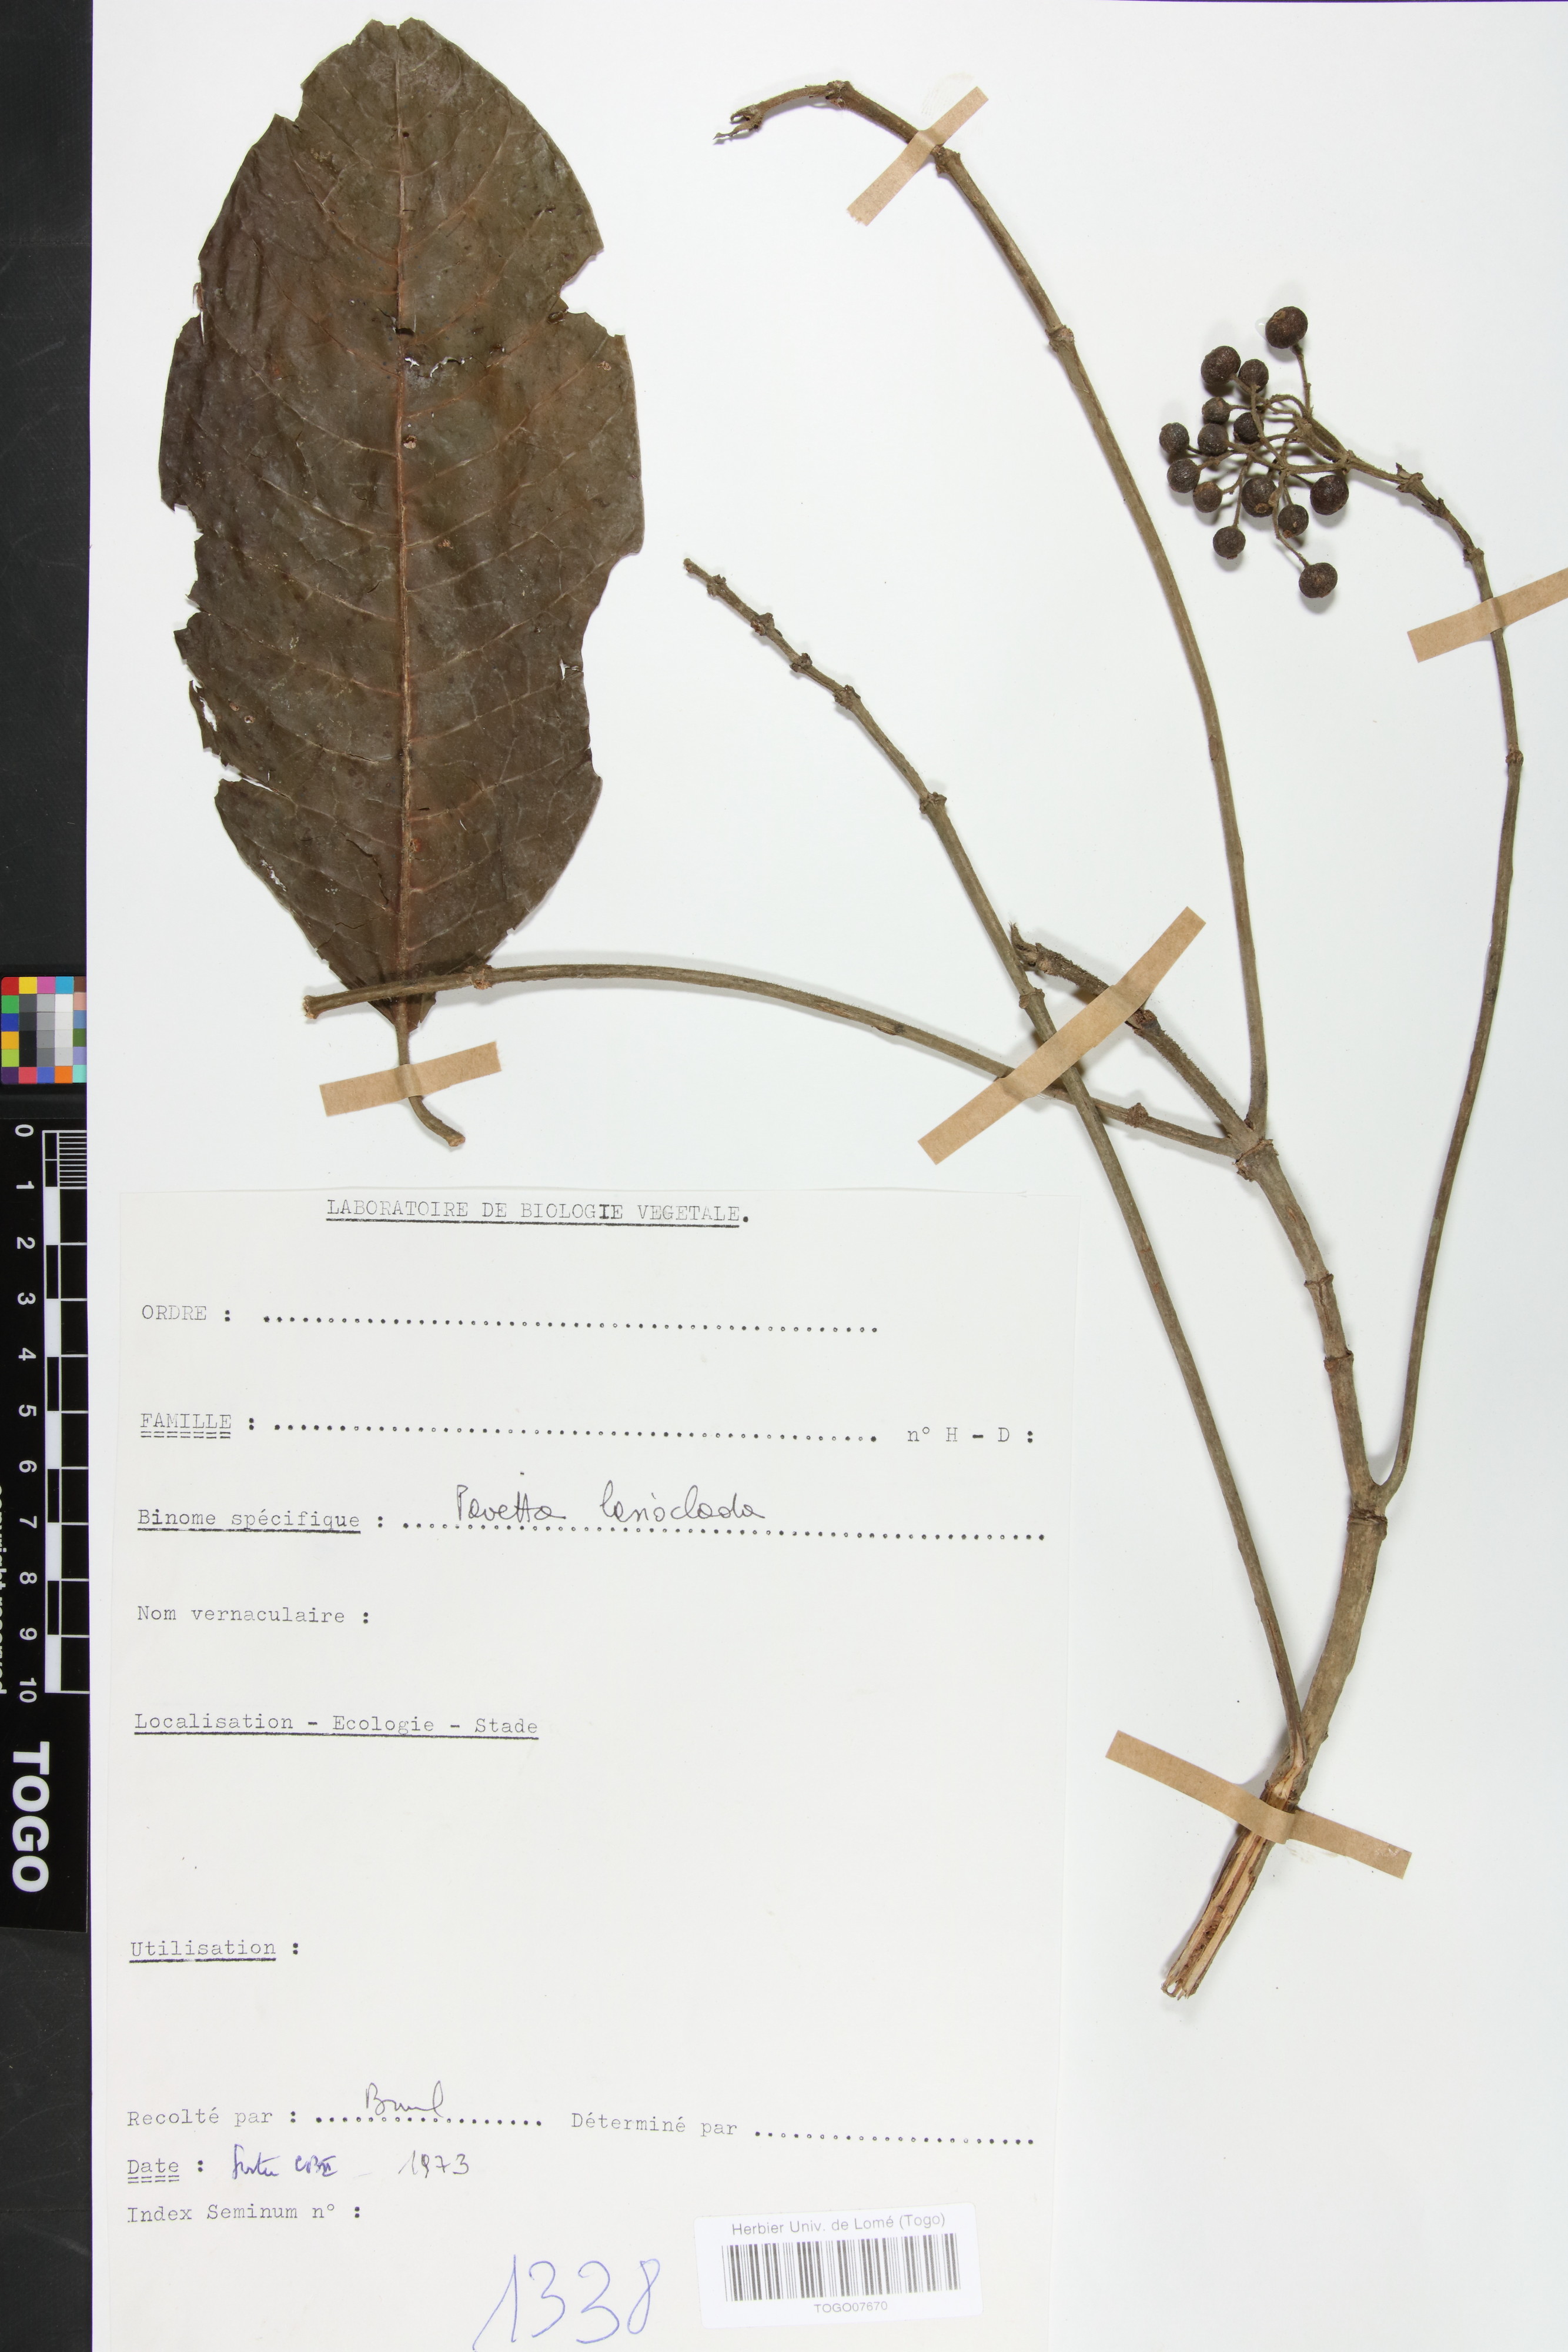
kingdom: Plantae
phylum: Tracheophyta
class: Magnoliopsida
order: Gentianales
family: Rubiaceae
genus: Pavetta
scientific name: Pavetta lasioclada
